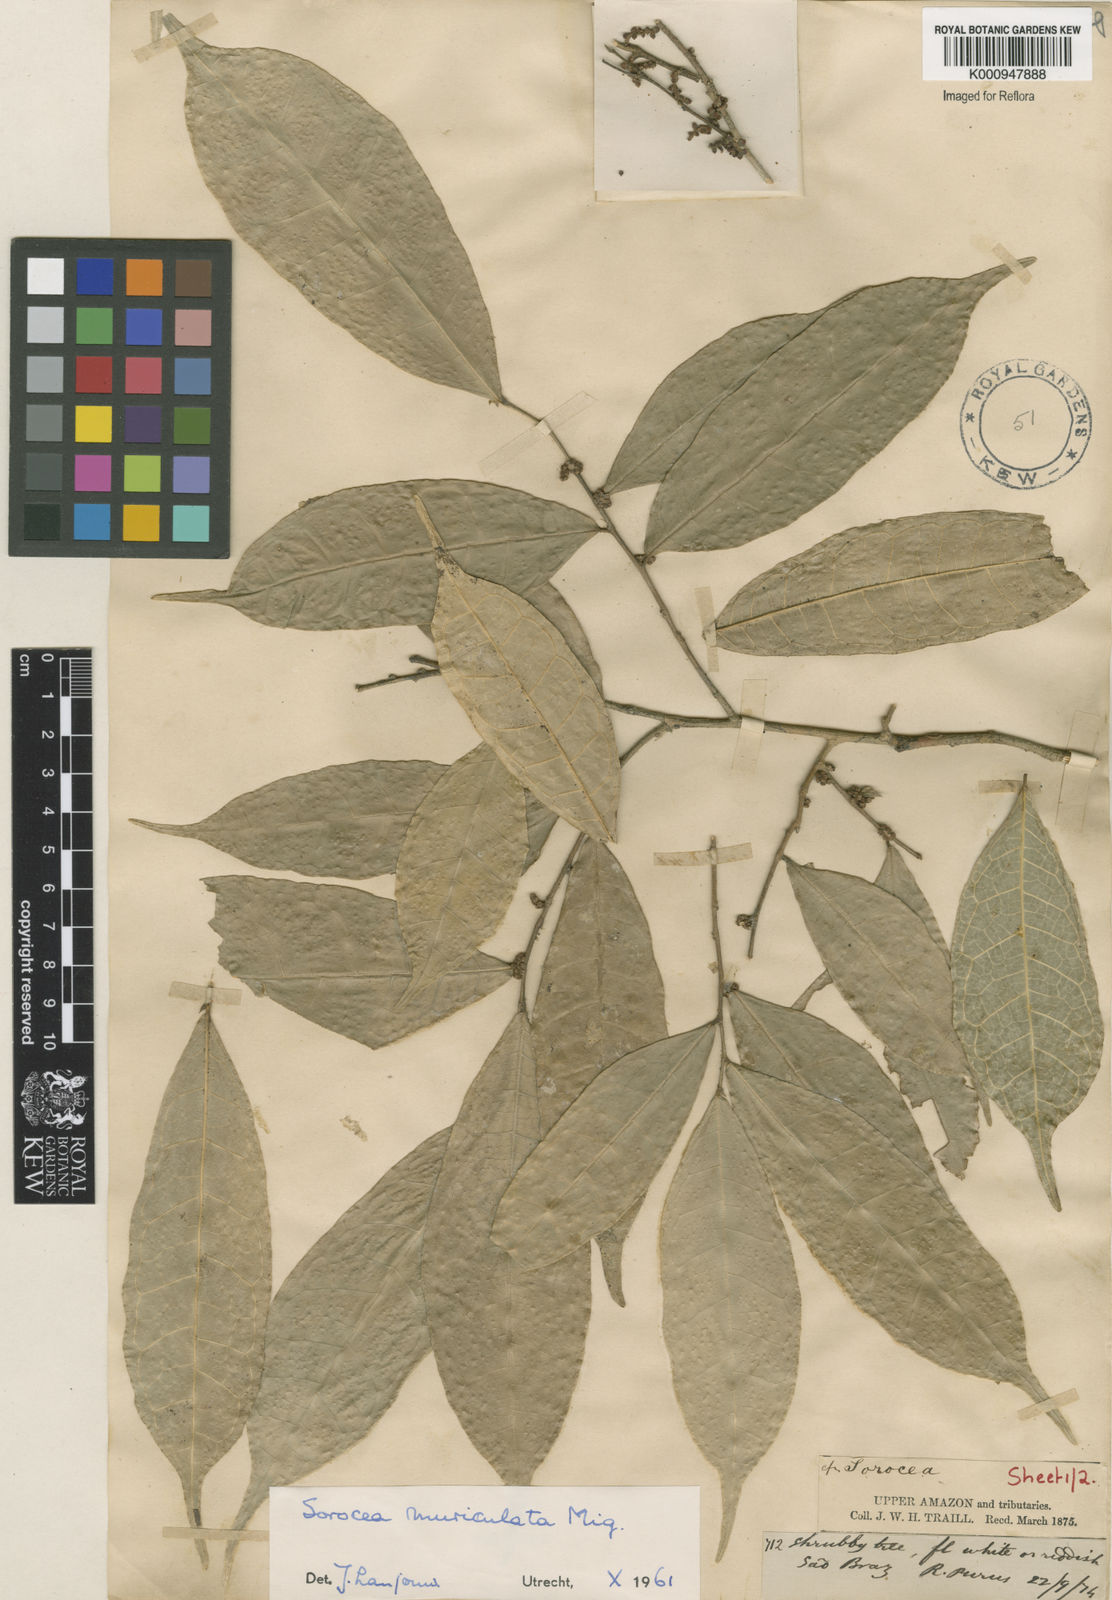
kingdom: Plantae
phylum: Tracheophyta
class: Magnoliopsida
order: Rosales
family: Moraceae
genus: Sorocea
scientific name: Sorocea muriculata
